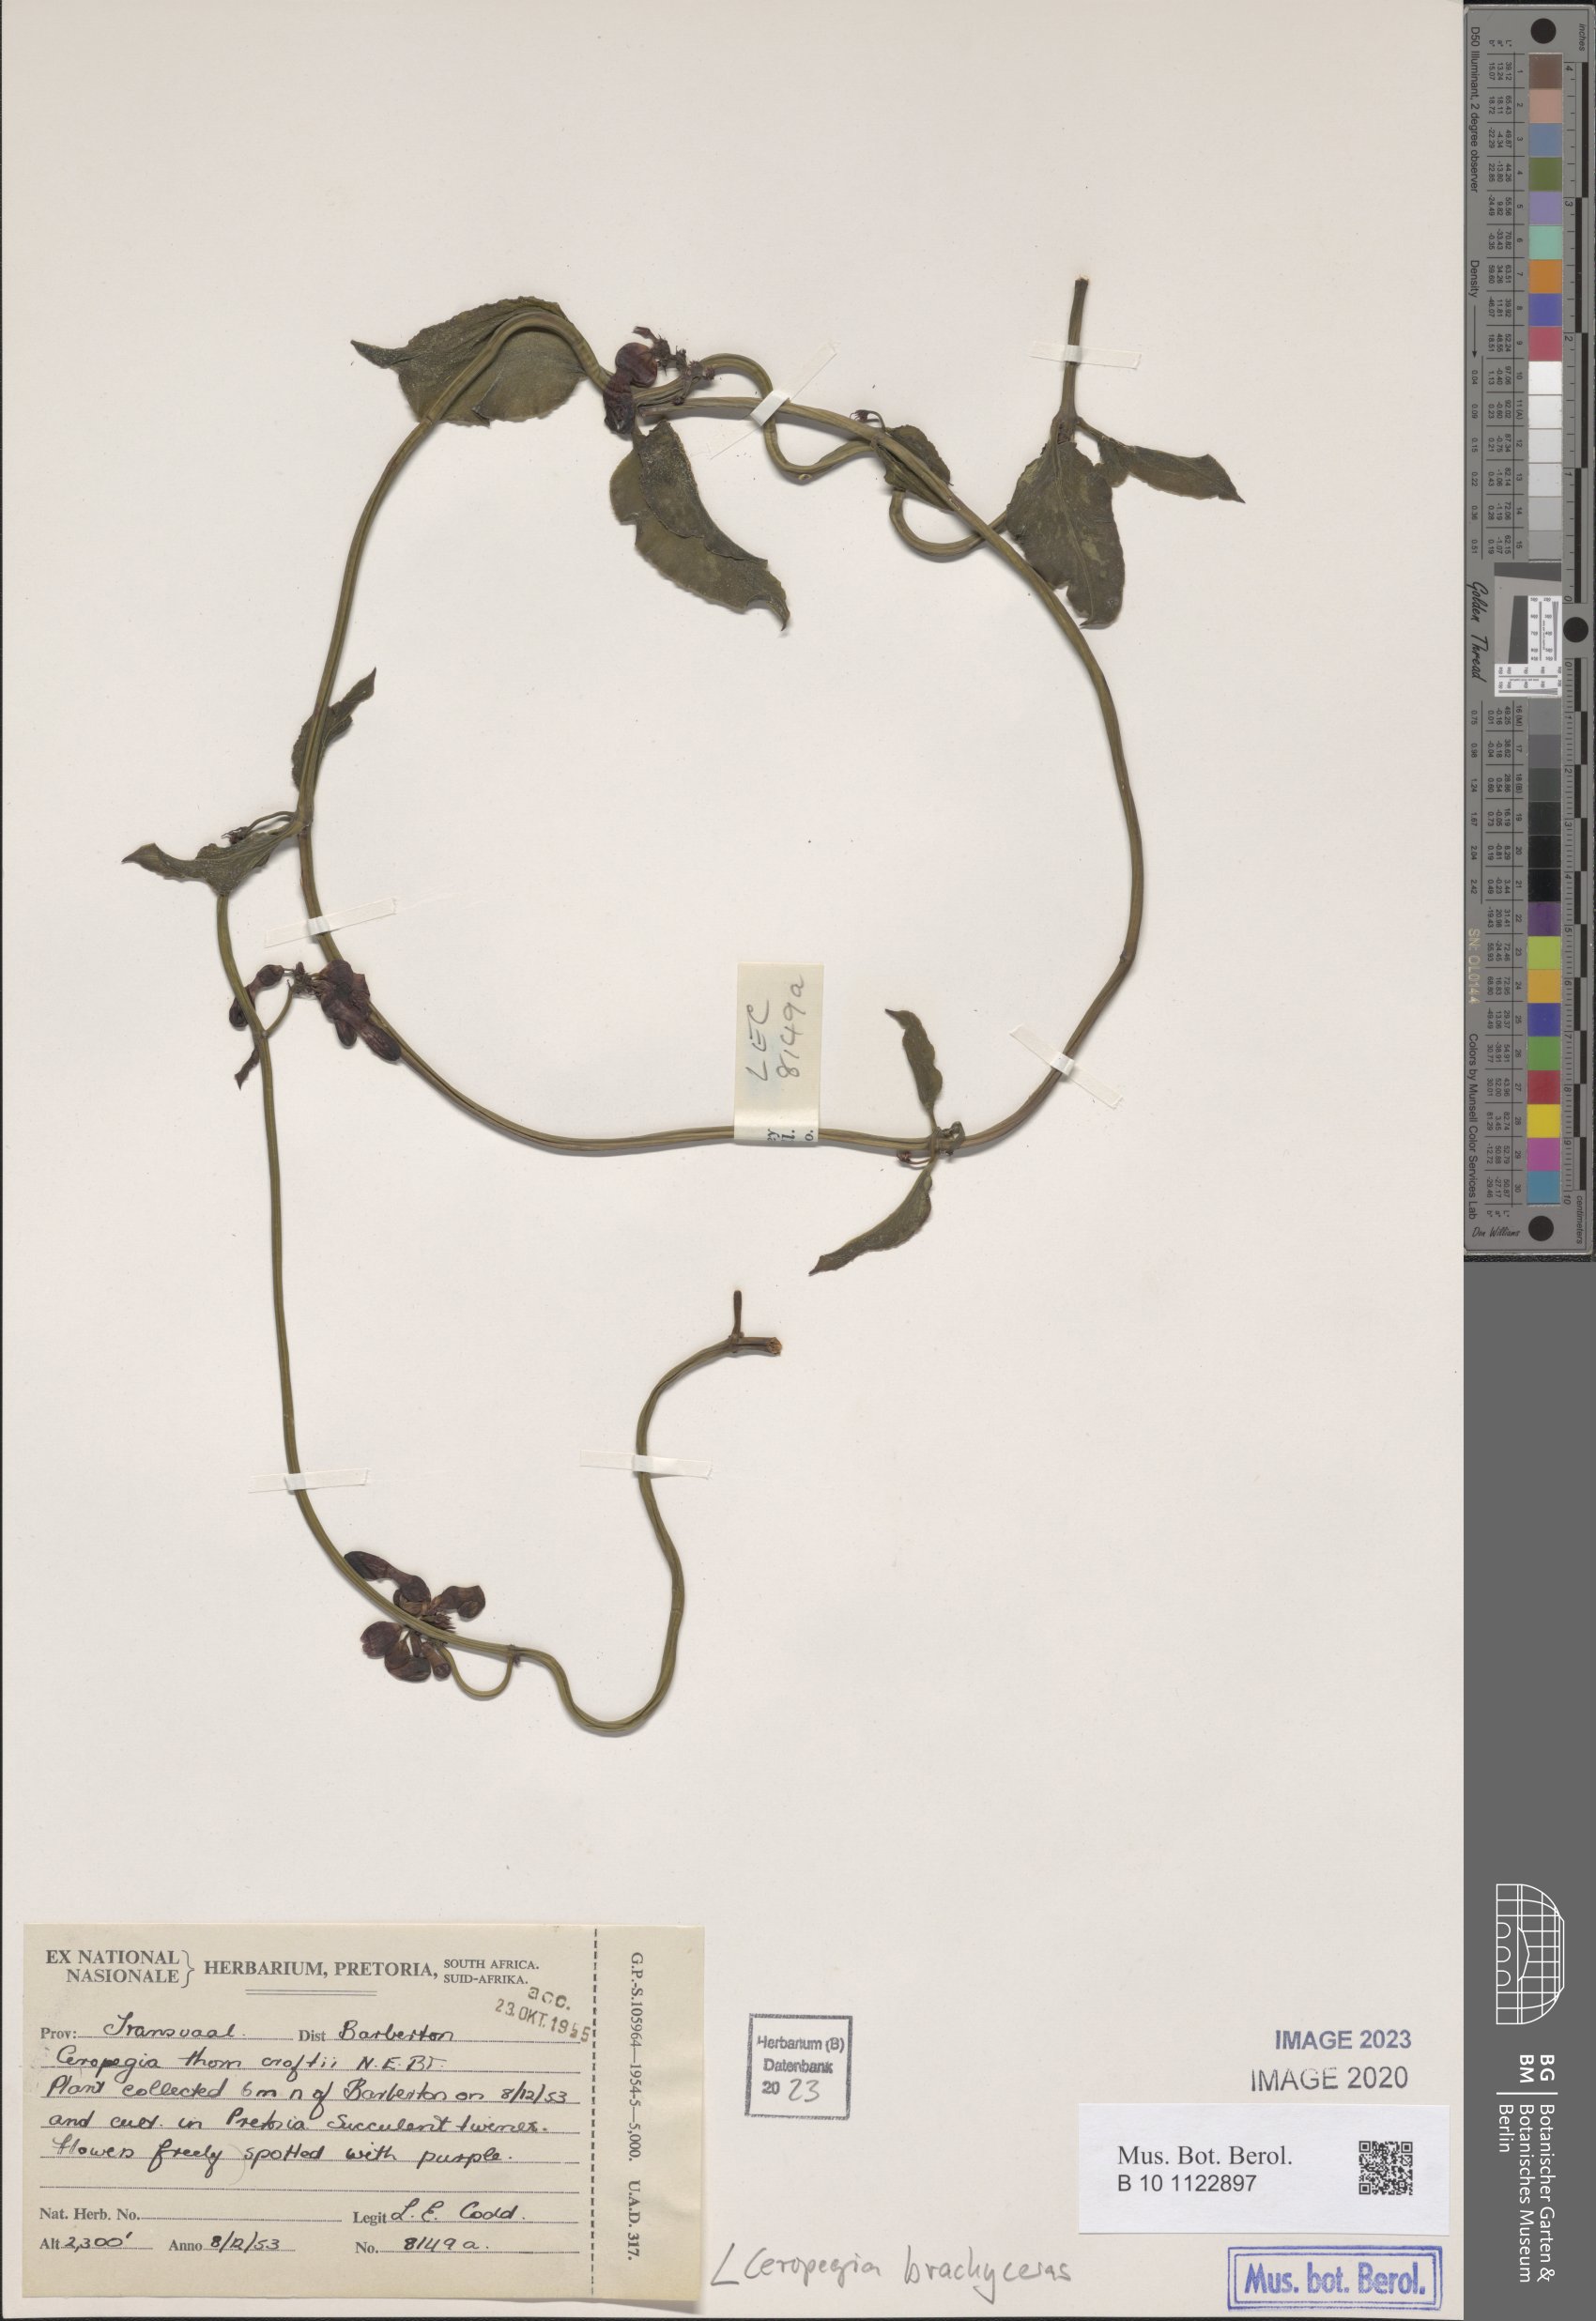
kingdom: Plantae
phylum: Tracheophyta
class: Magnoliopsida
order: Gentianales
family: Apocynaceae
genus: Ceropegia
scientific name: Ceropegia brachyceras
